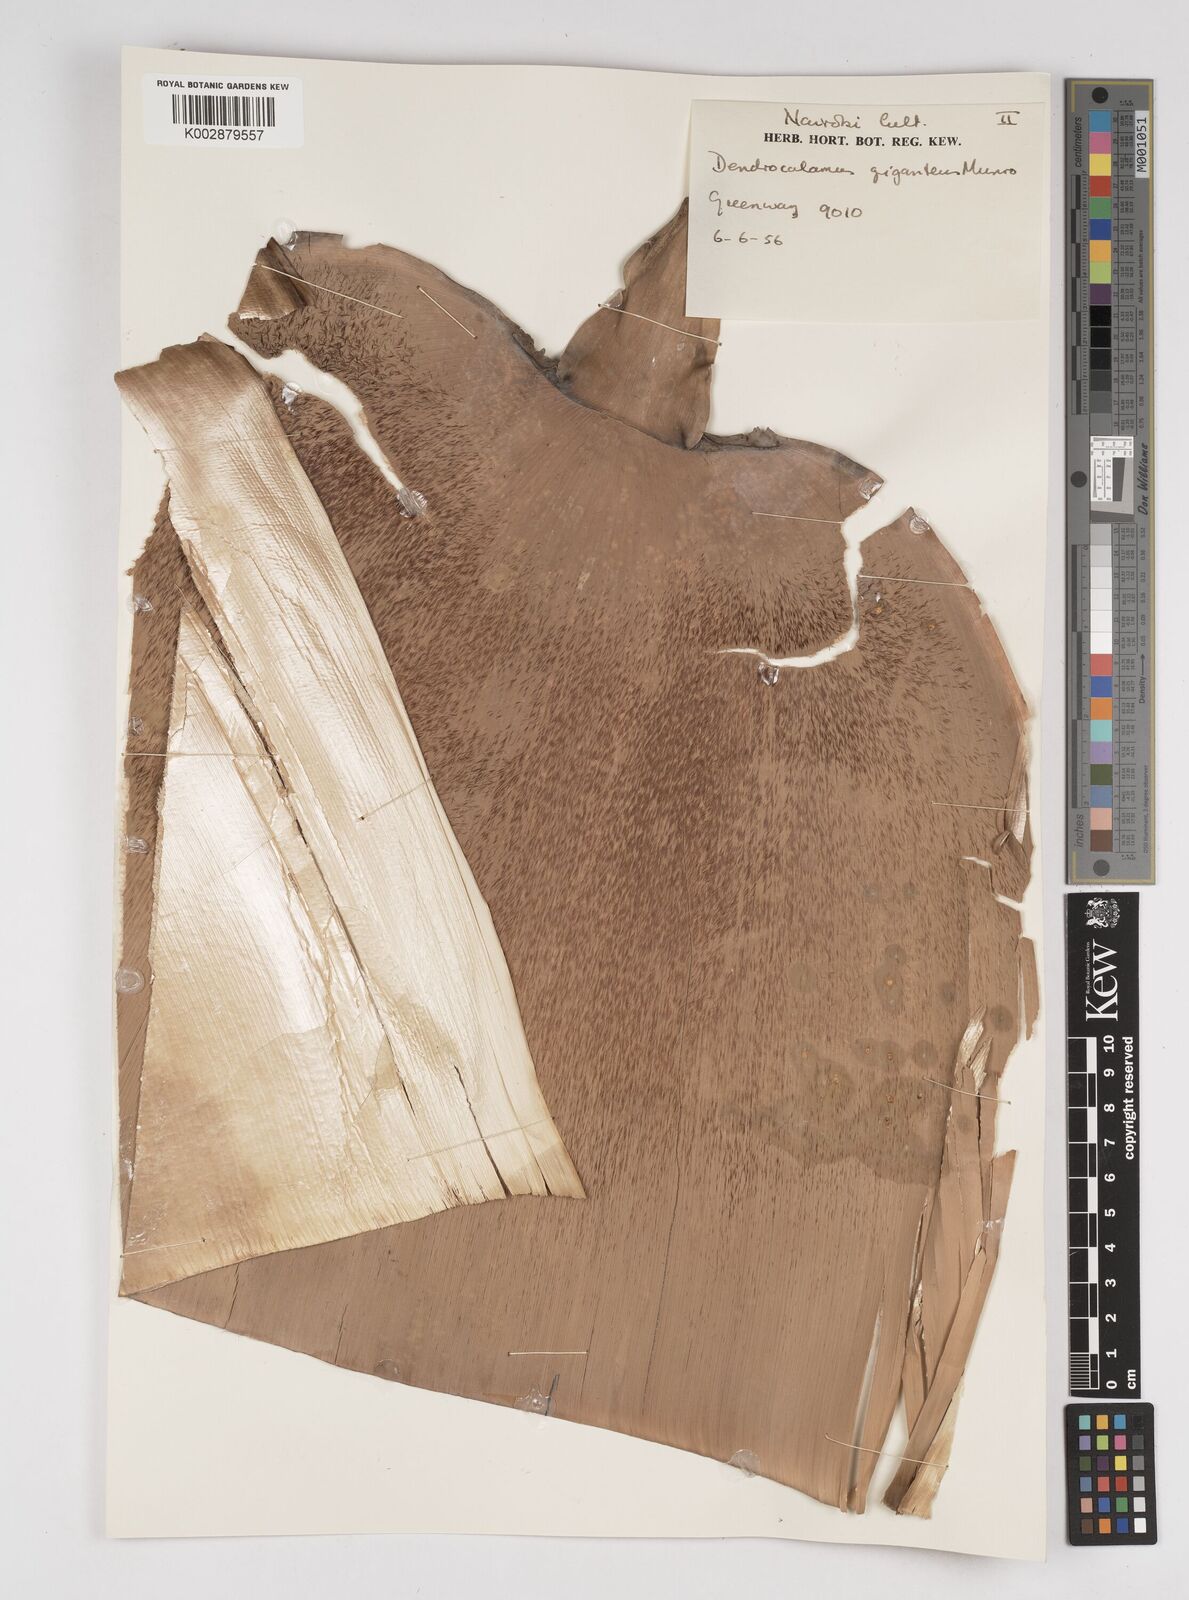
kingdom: Plantae
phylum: Tracheophyta
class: Liliopsida
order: Poales
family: Poaceae
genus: Dendrocalamus
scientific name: Dendrocalamus giganteus
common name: Giant bamboo
